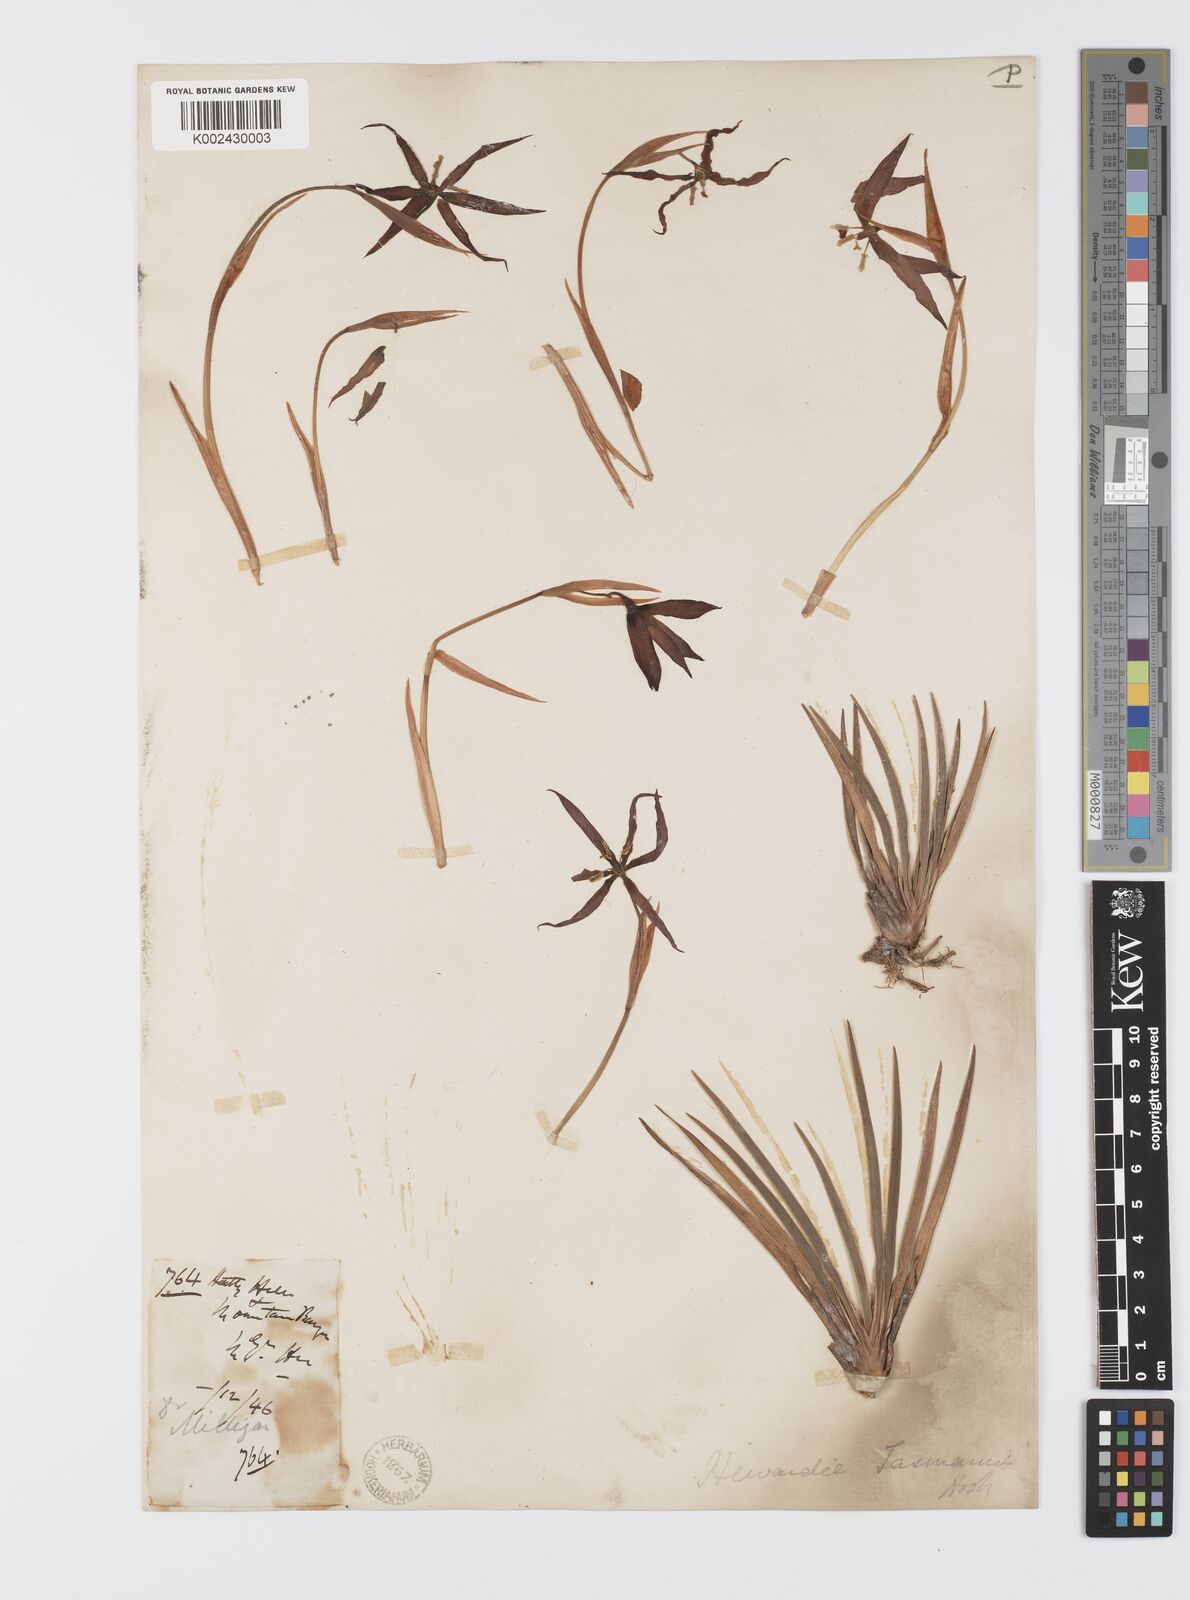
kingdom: Plantae
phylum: Tracheophyta
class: Liliopsida
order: Asparagales
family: Iridaceae
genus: Isophysis
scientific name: Isophysis
